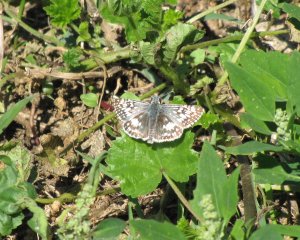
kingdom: Animalia
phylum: Arthropoda
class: Insecta
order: Lepidoptera
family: Hesperiidae
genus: Pyrgus
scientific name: Pyrgus communis
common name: Common Checkered-Skipper
